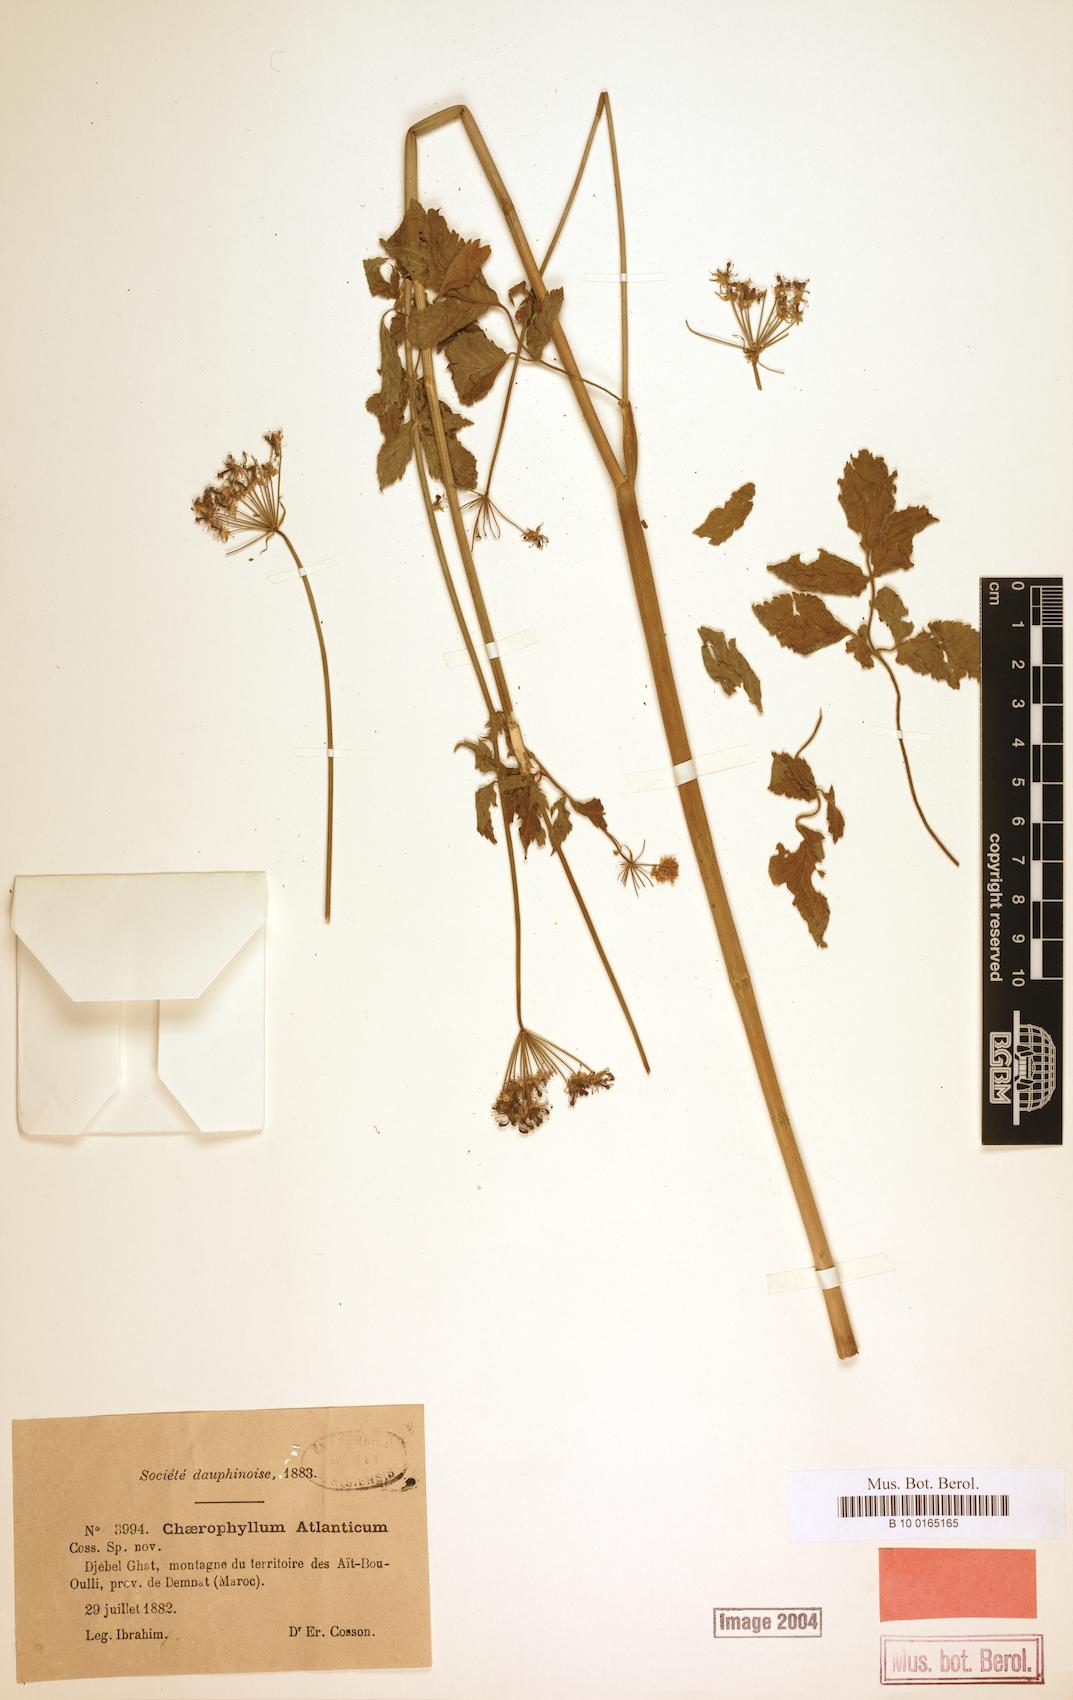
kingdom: Plantae
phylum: Tracheophyta
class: Magnoliopsida
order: Apiales
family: Apiaceae
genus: Chaerophyllum
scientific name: Chaerophyllum atlanticum
